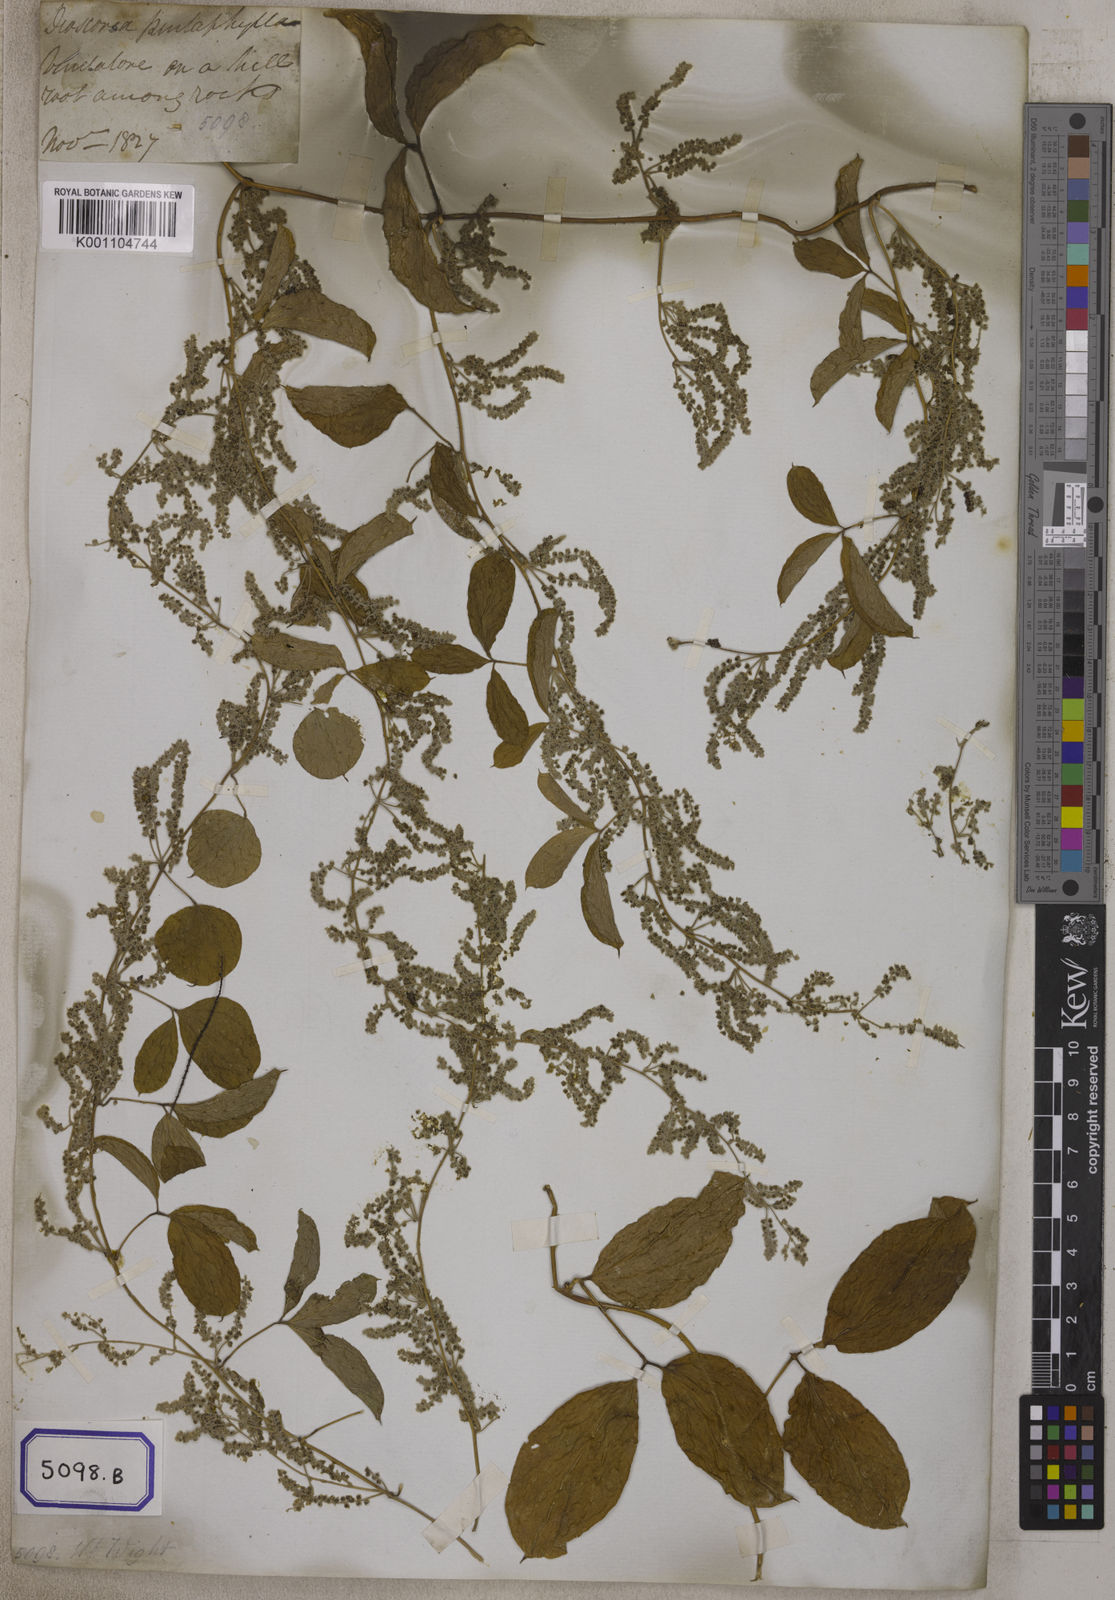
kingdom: Plantae
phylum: Tracheophyta
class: Liliopsida
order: Dioscoreales
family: Dioscoreaceae
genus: Dioscorea
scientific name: Dioscorea
